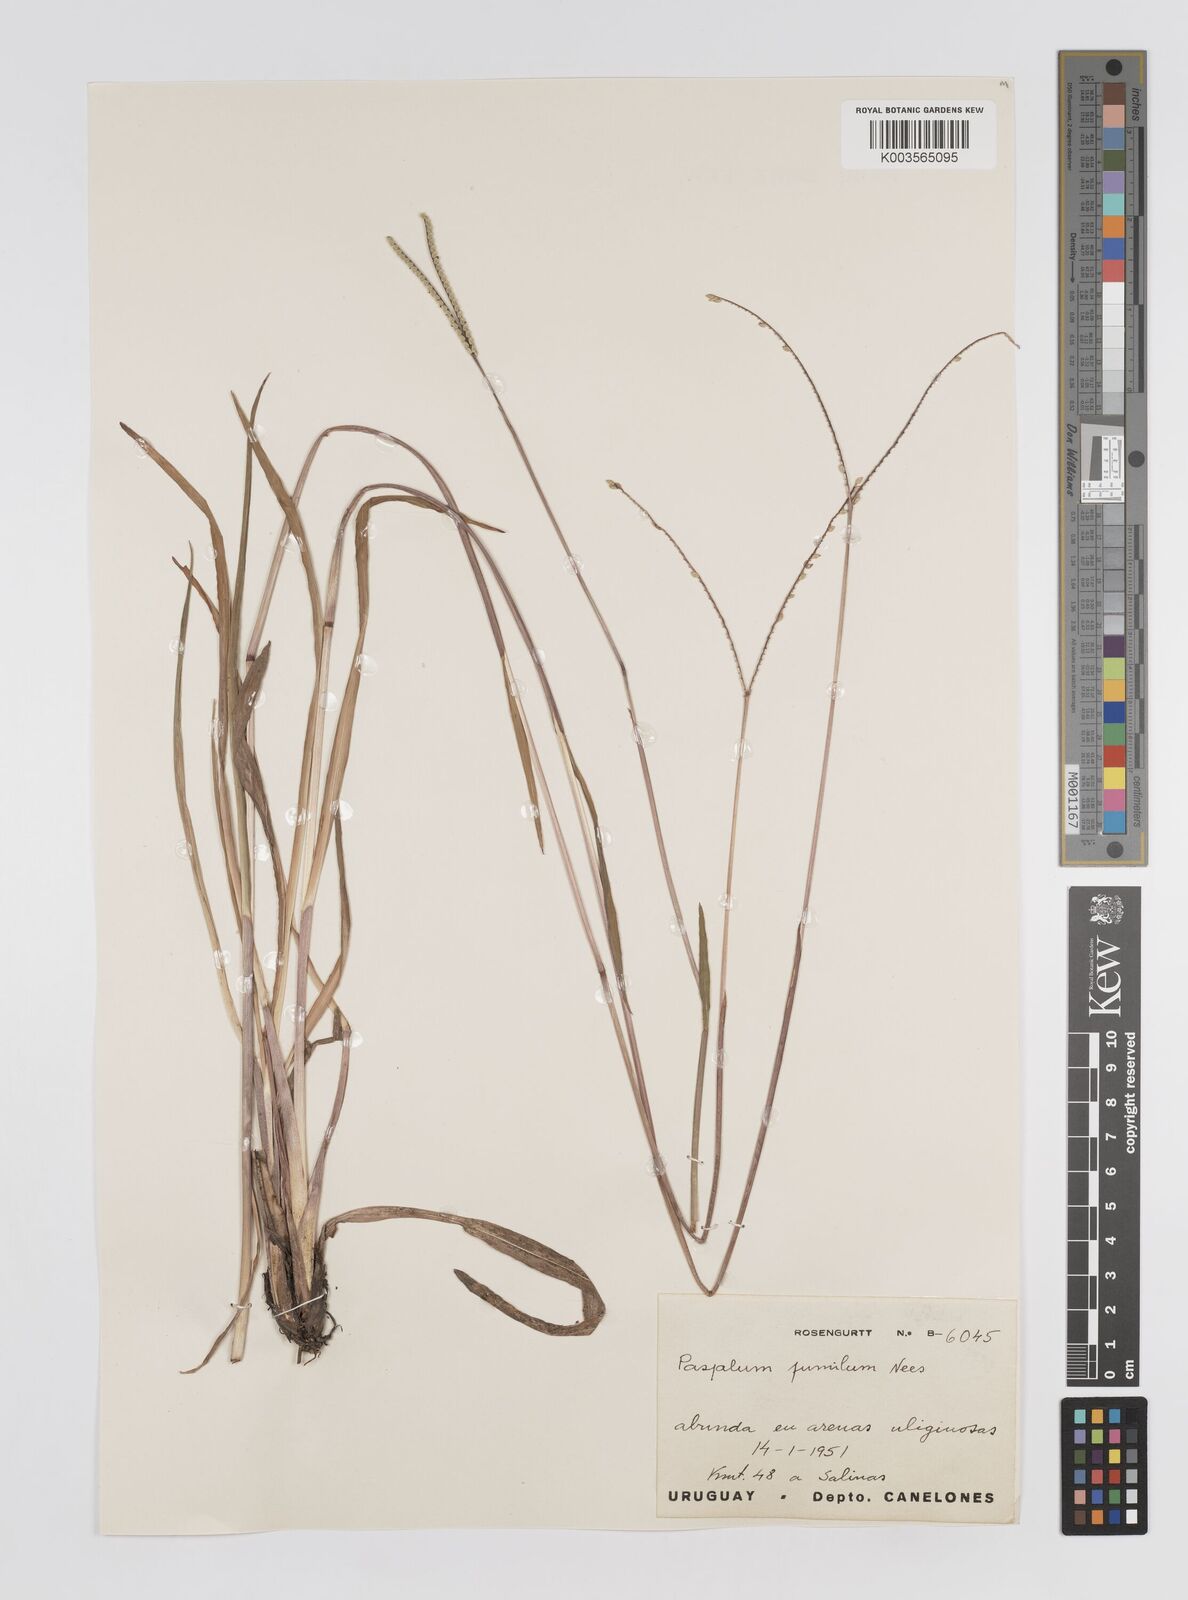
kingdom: Plantae
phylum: Tracheophyta
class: Liliopsida
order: Poales
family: Poaceae
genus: Paspalum
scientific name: Paspalum clavuliferum
